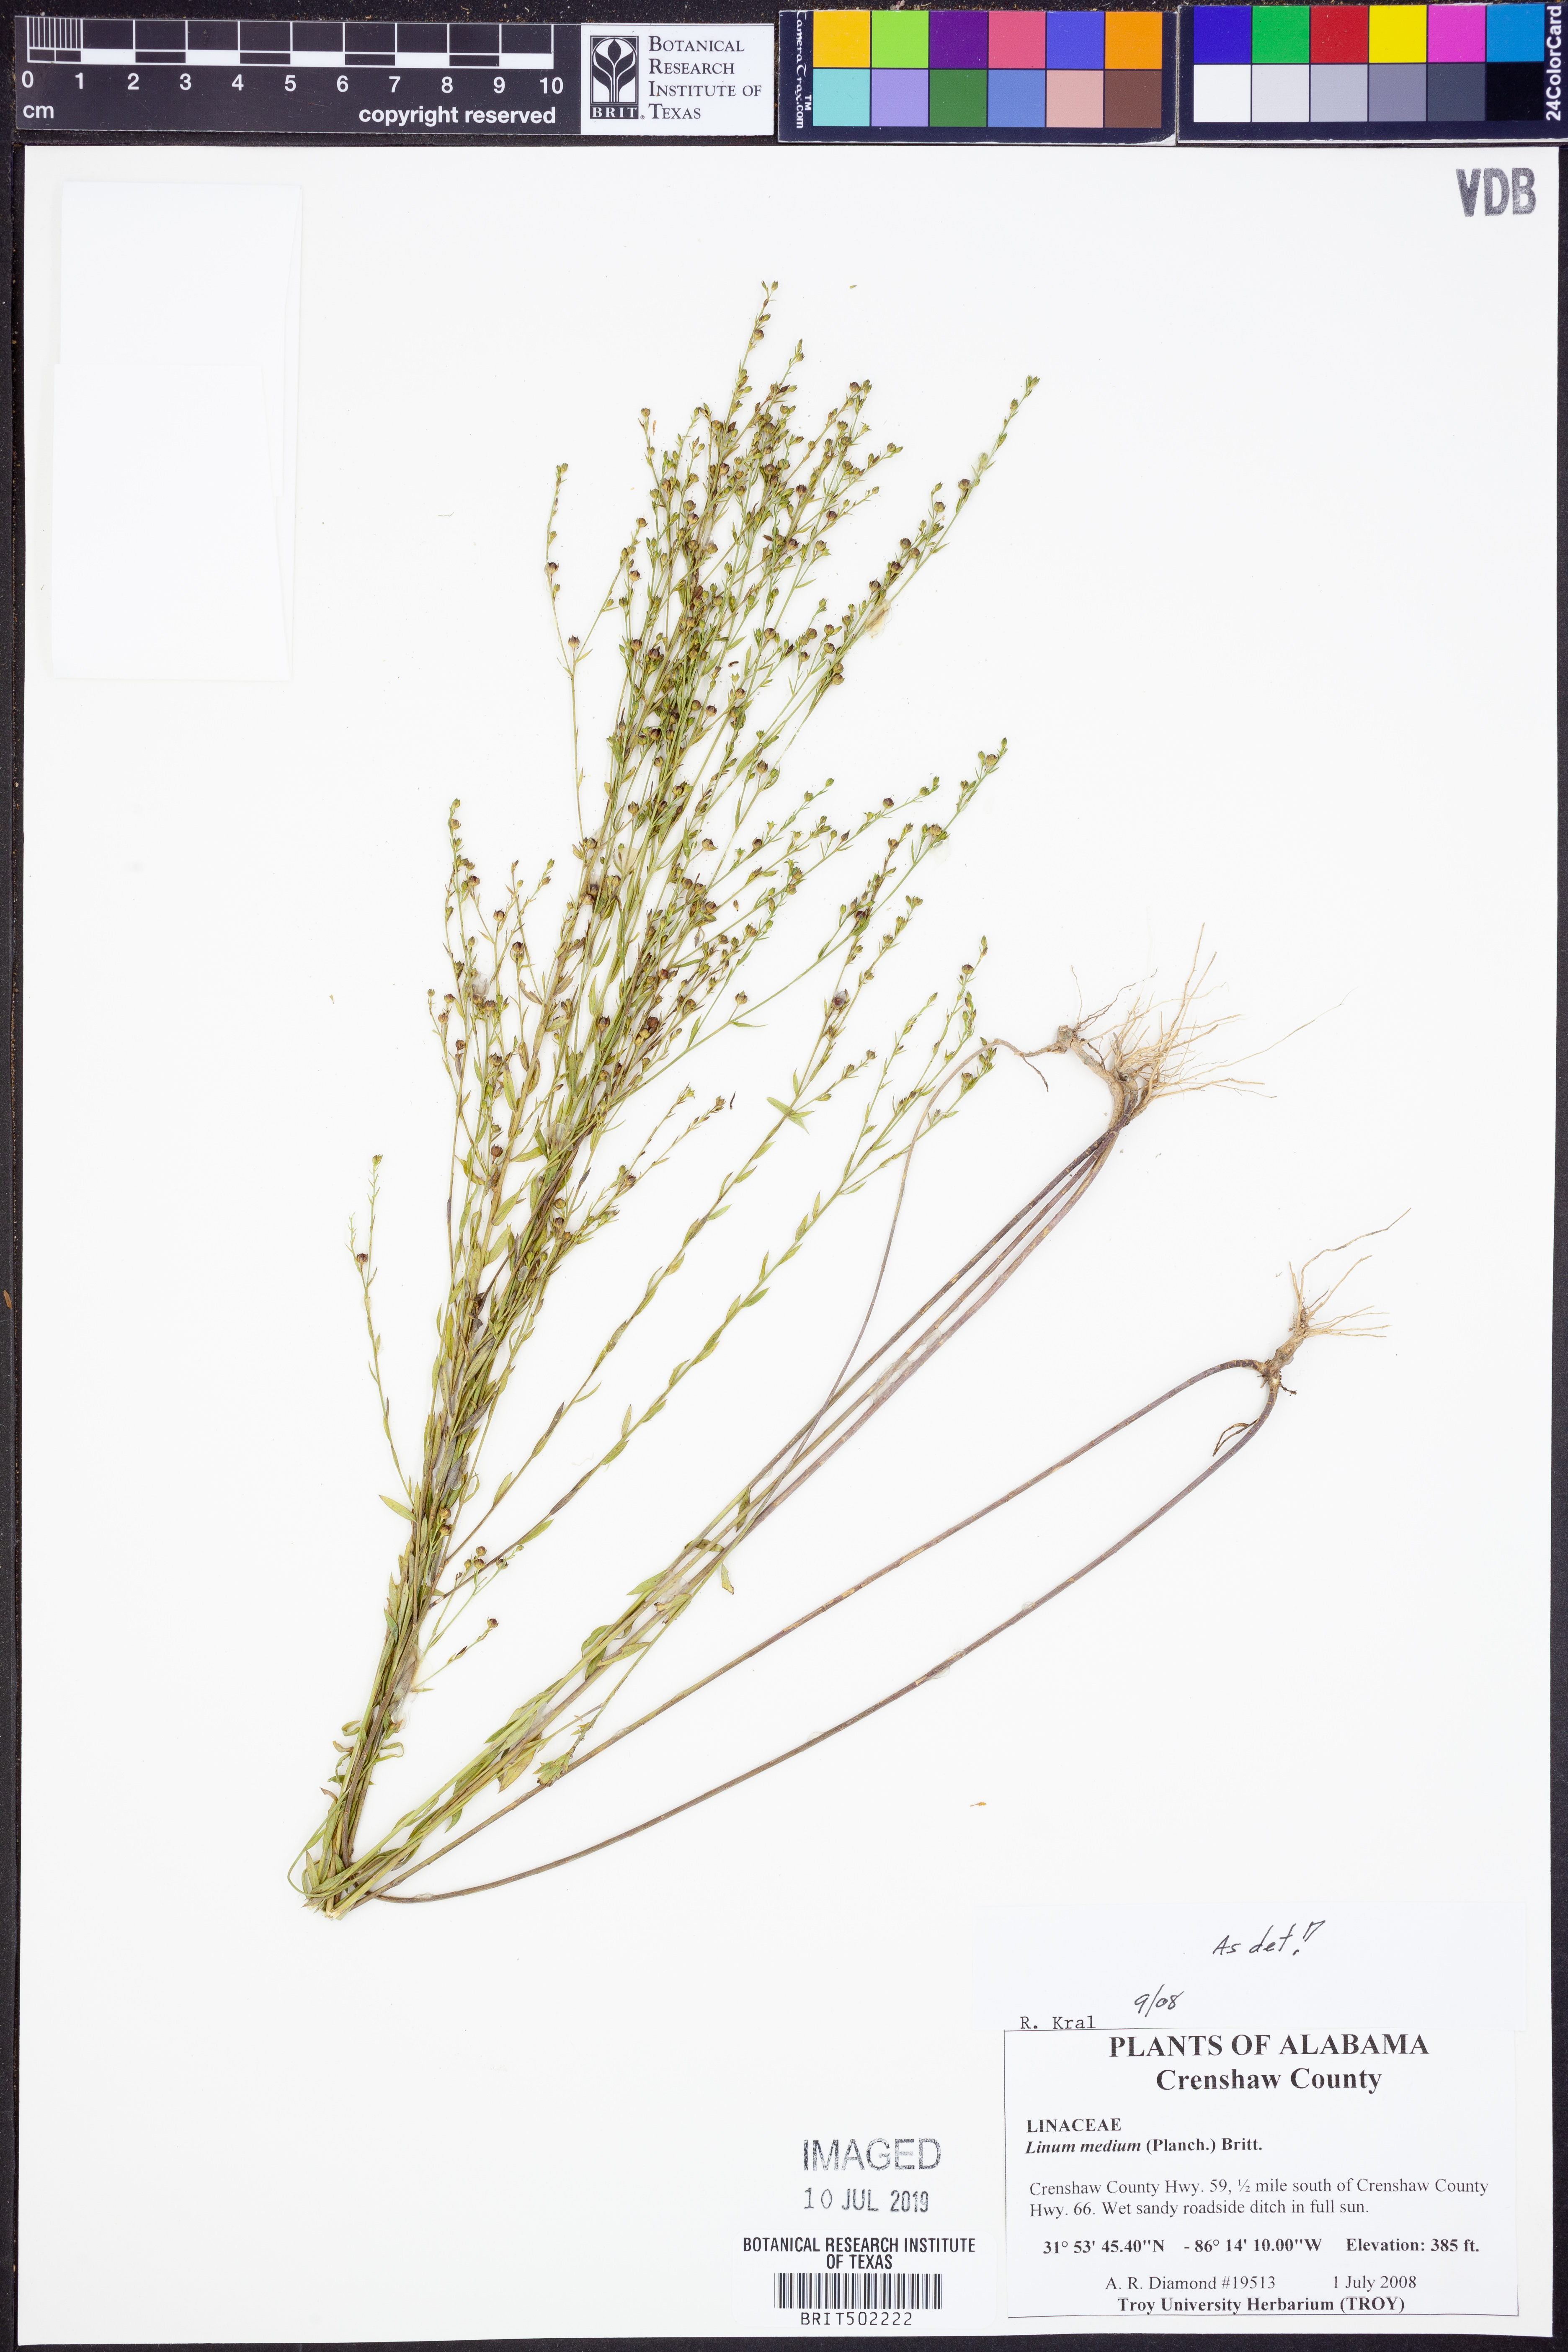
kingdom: Plantae
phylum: Tracheophyta
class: Magnoliopsida
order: Malpighiales
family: Linaceae
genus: Linum
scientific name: Linum medium
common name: Stiff yellow flax
